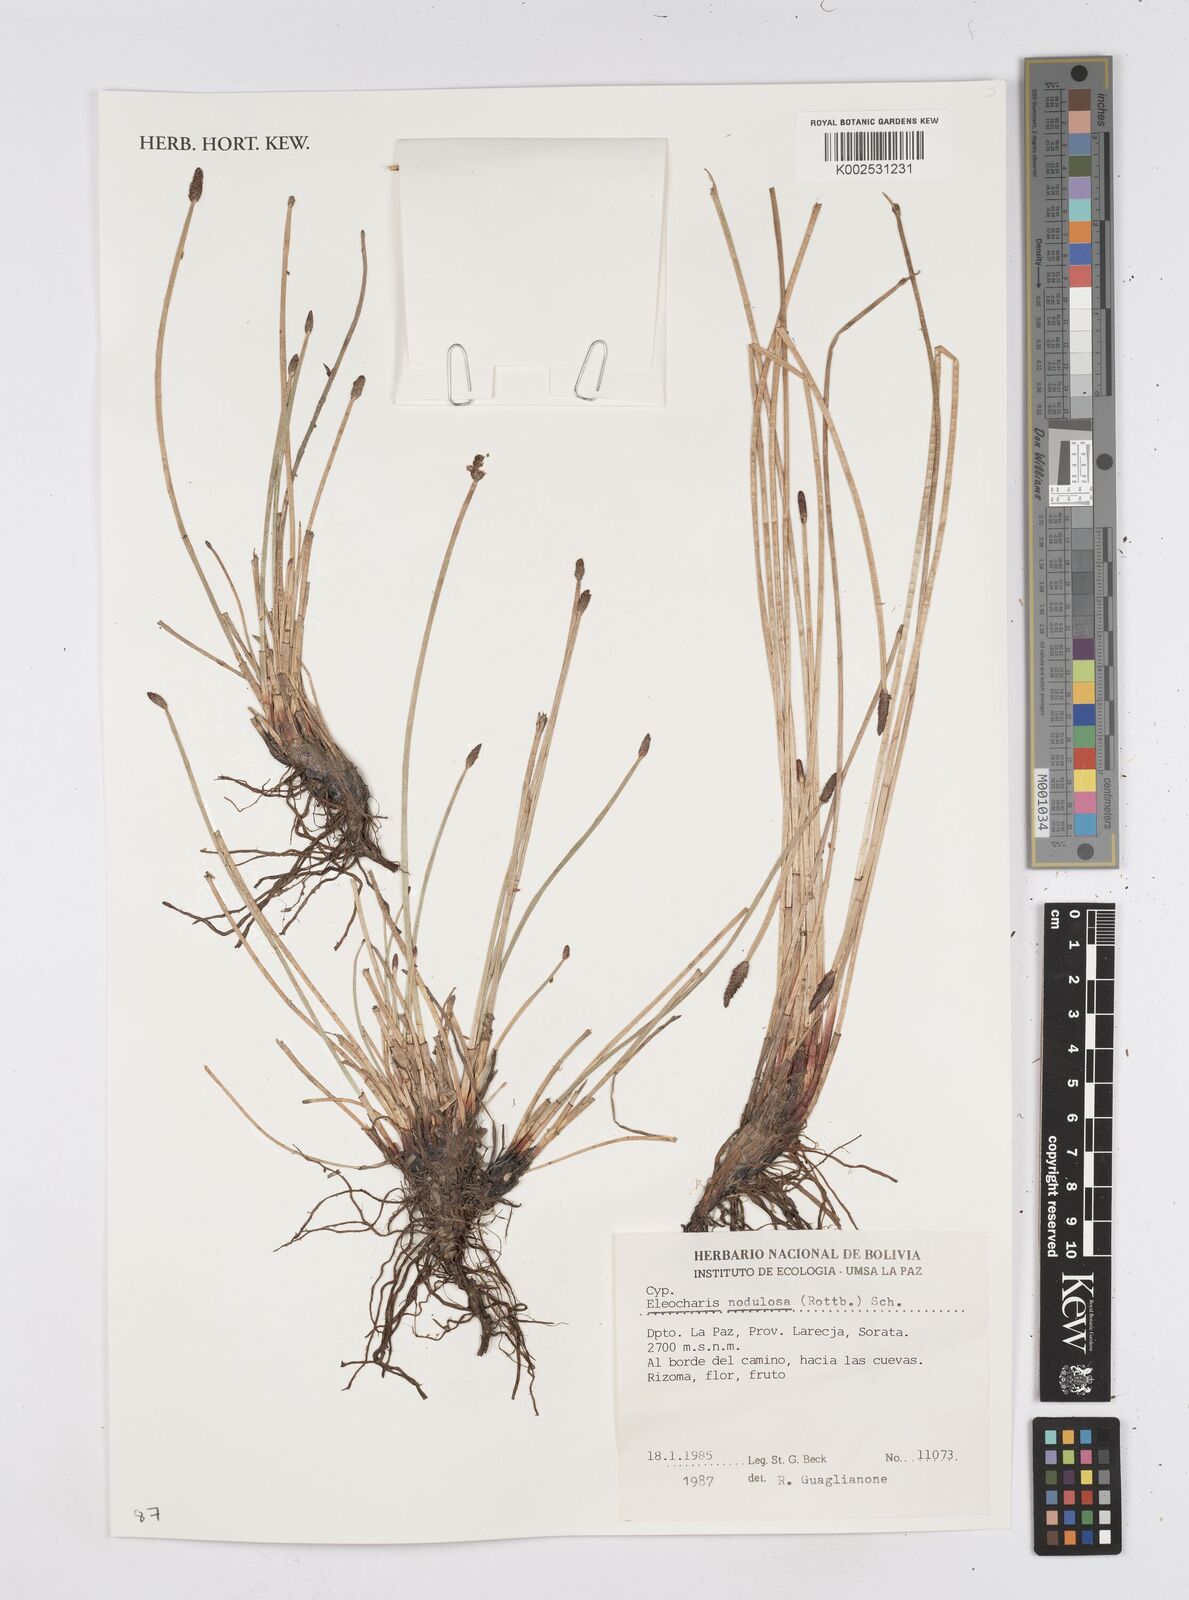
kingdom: Plantae
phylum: Tracheophyta
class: Liliopsida
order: Poales
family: Cyperaceae
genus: Eleocharis
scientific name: Eleocharis montana
